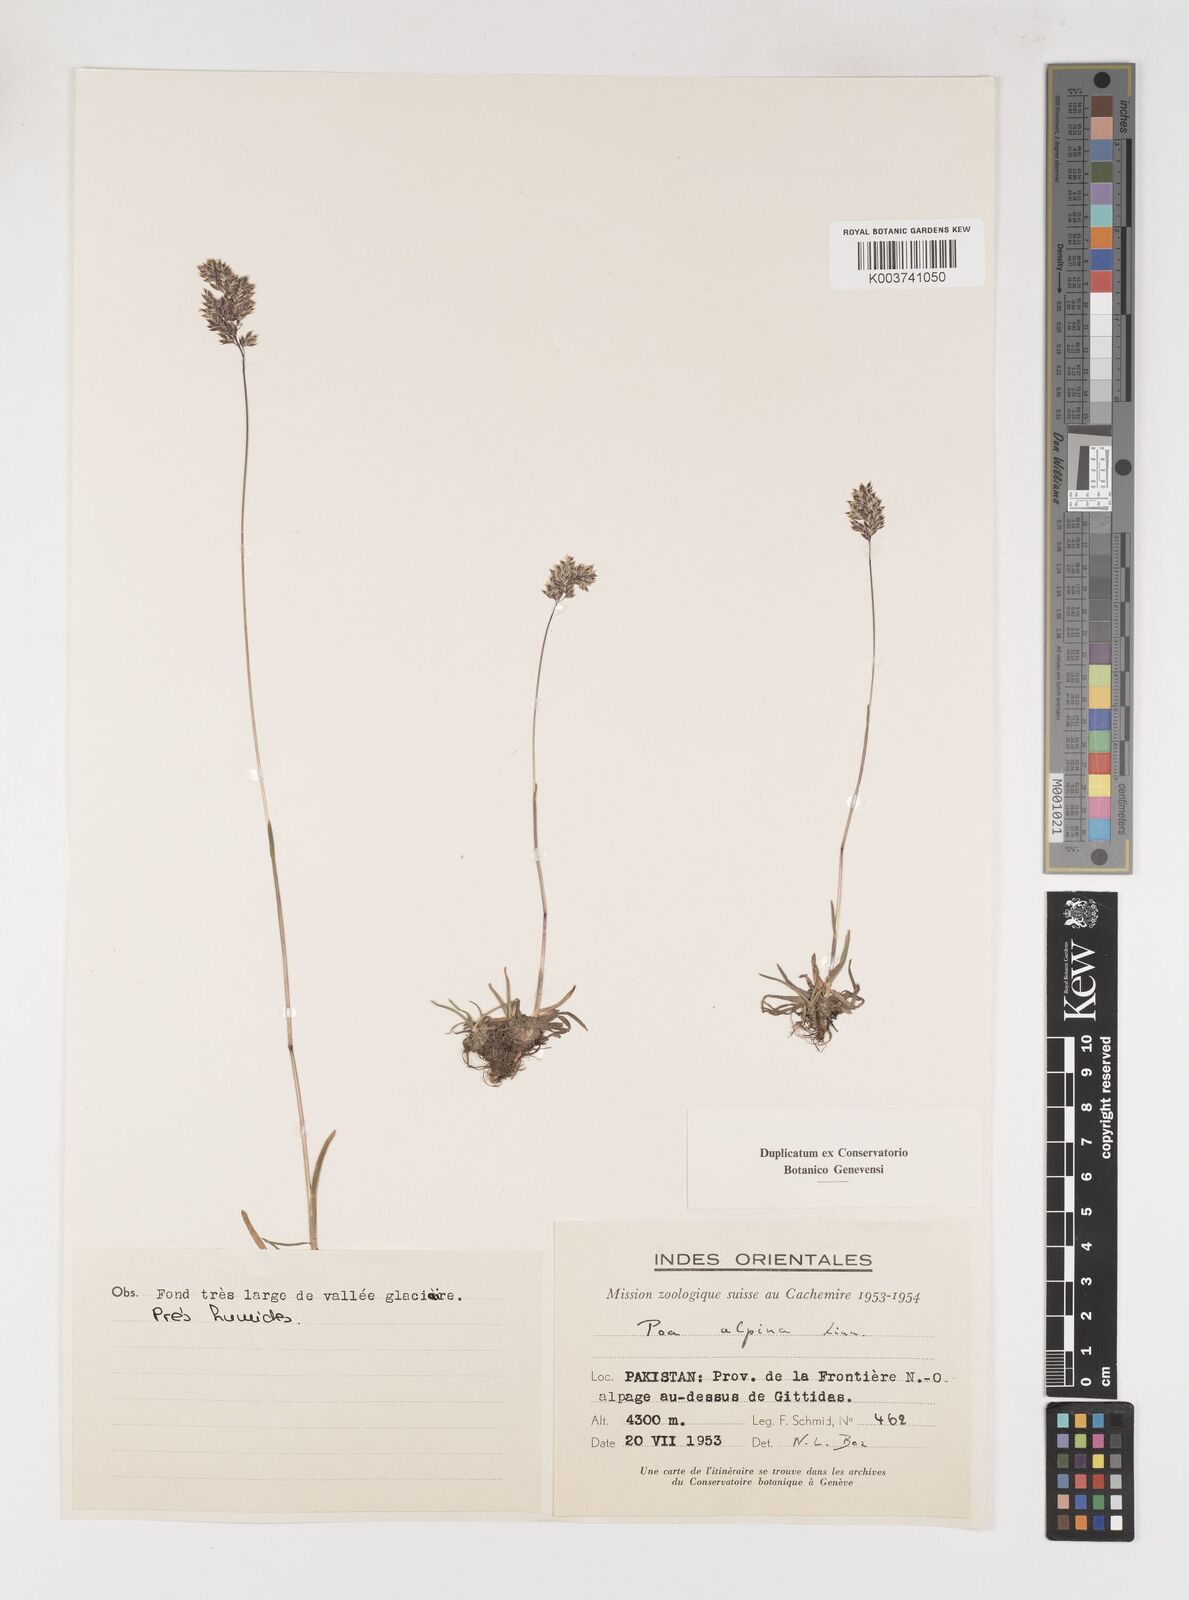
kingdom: Plantae
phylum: Tracheophyta
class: Liliopsida
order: Poales
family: Poaceae
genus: Poa
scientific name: Poa alpina
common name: Alpine bluegrass
